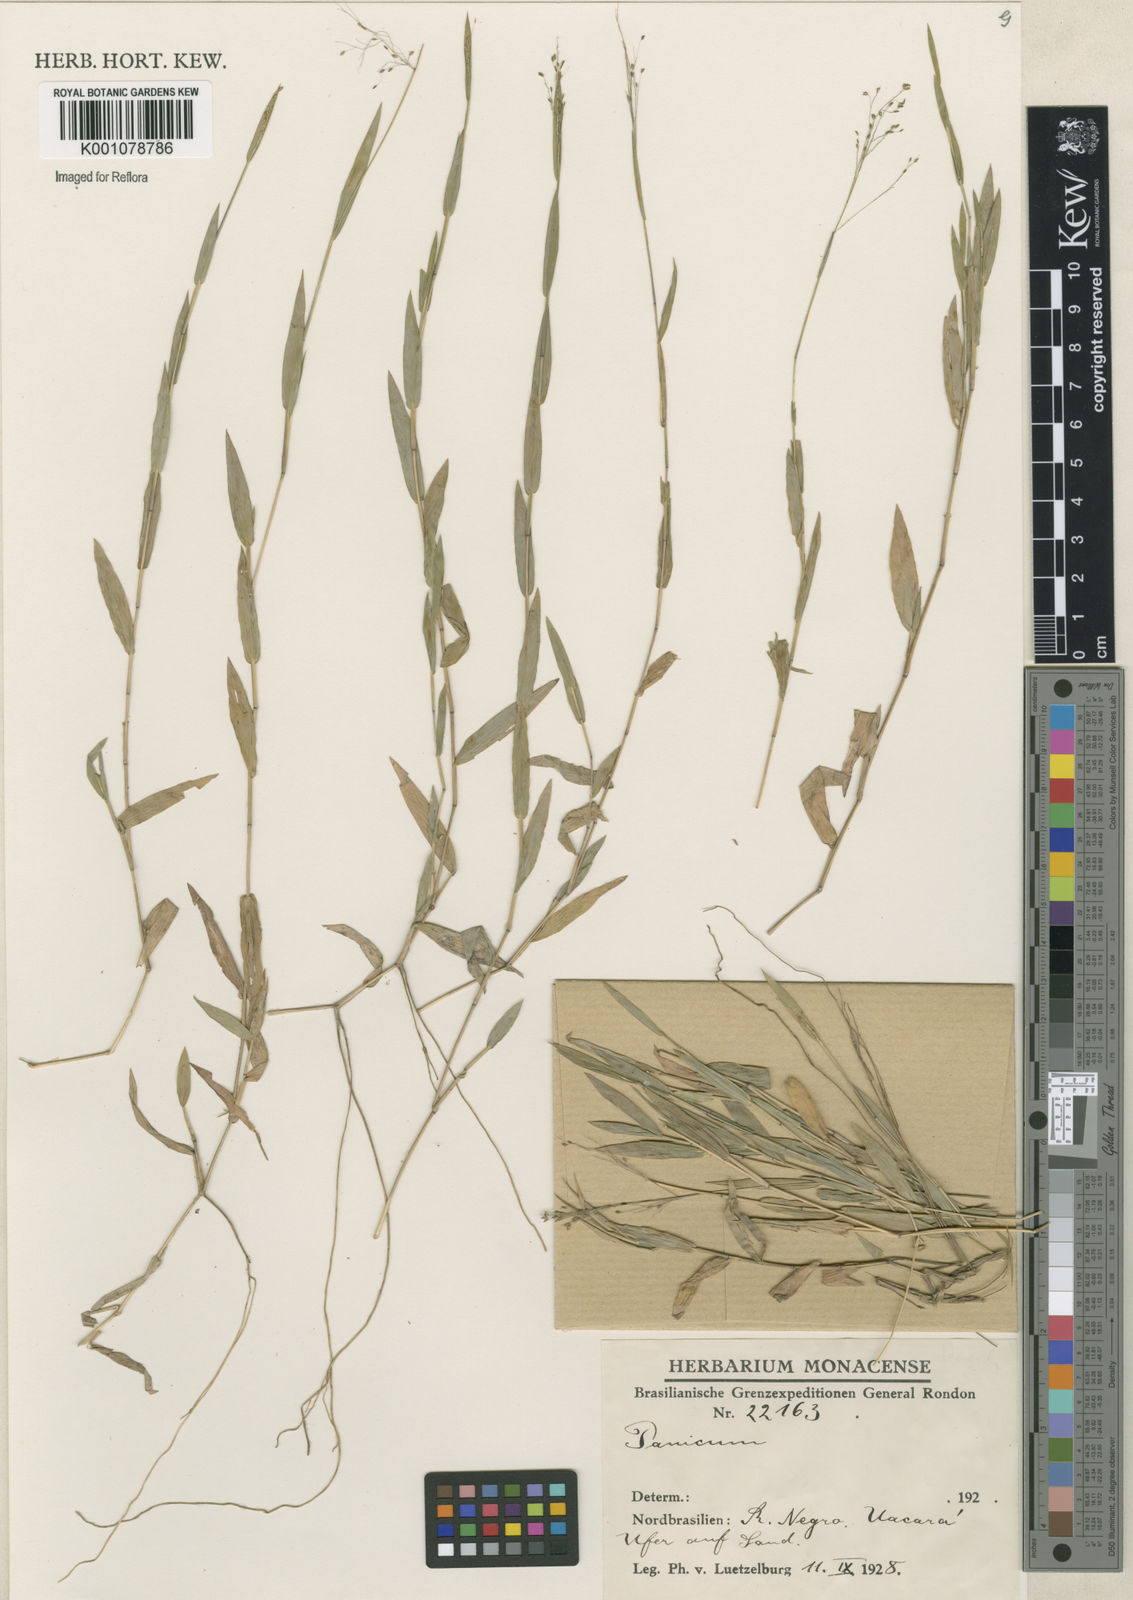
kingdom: Plantae
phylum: Tracheophyta
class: Liliopsida
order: Poales
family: Poaceae
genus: Panicum
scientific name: Panicum
